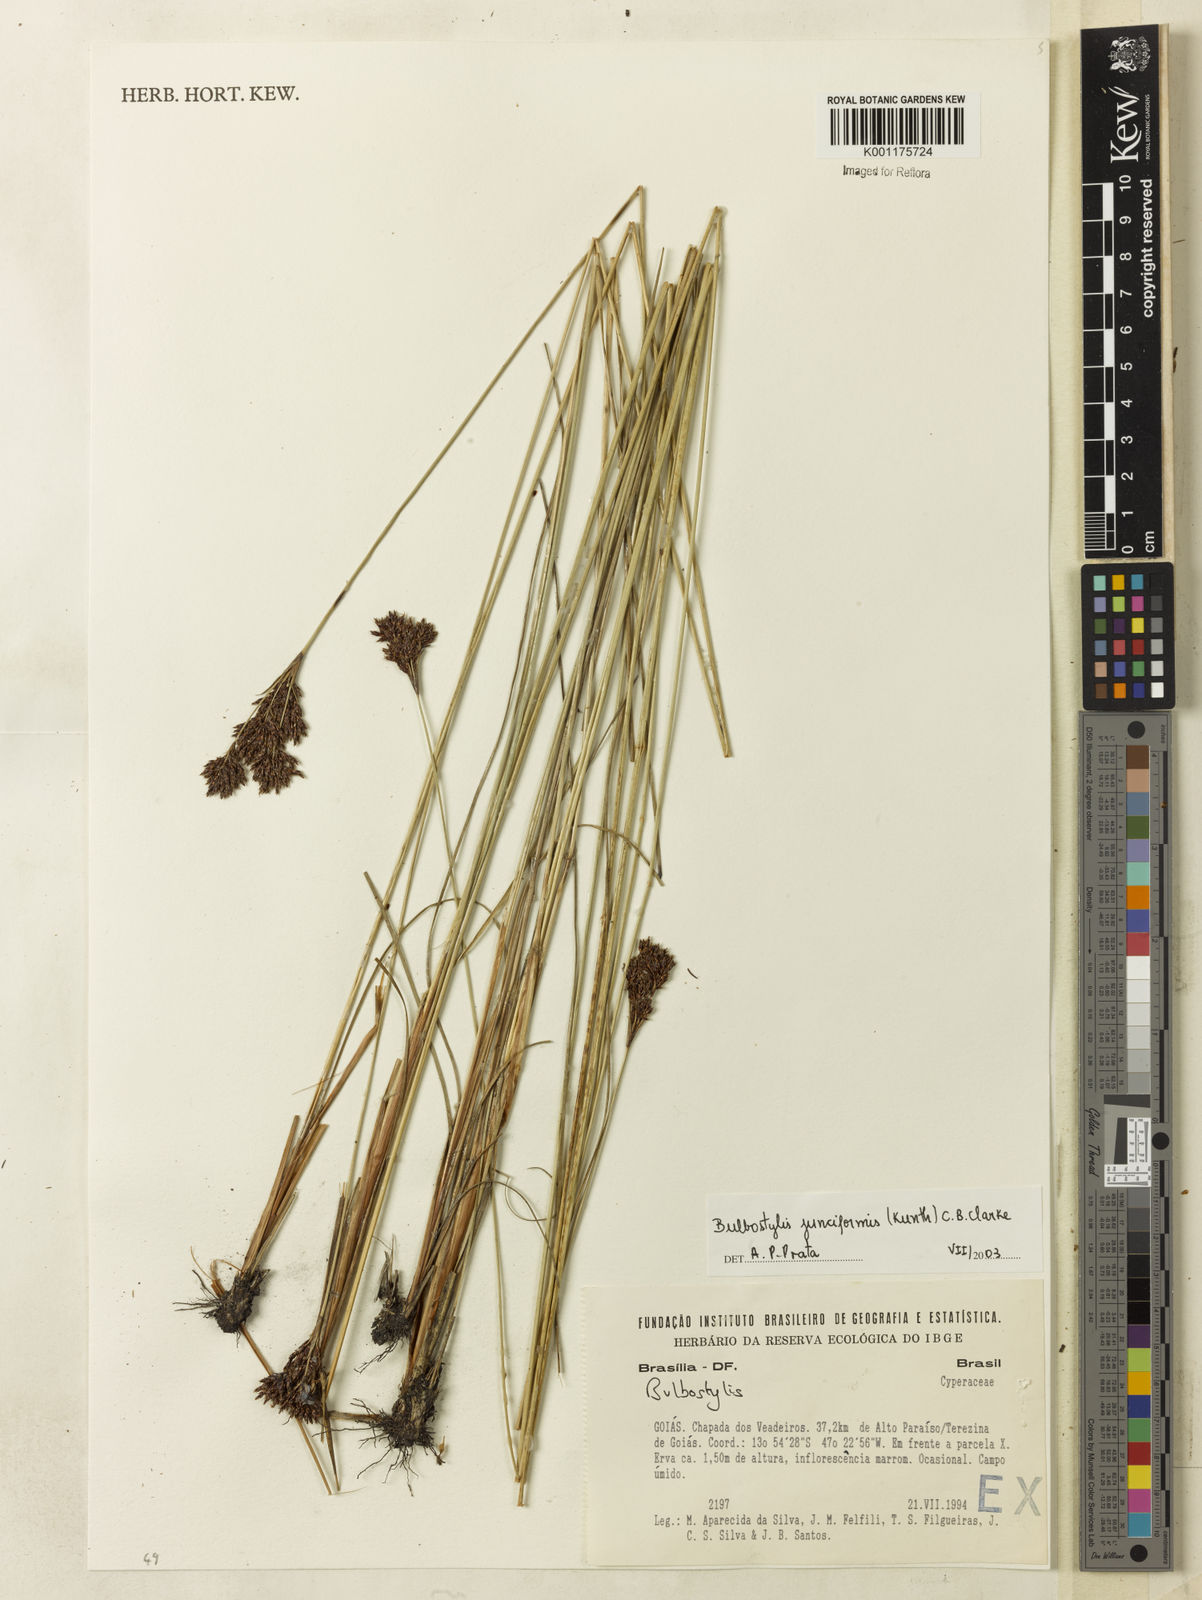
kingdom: Plantae
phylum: Tracheophyta
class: Liliopsida
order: Poales
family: Cyperaceae
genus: Bulbostylis
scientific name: Bulbostylis junciformis
